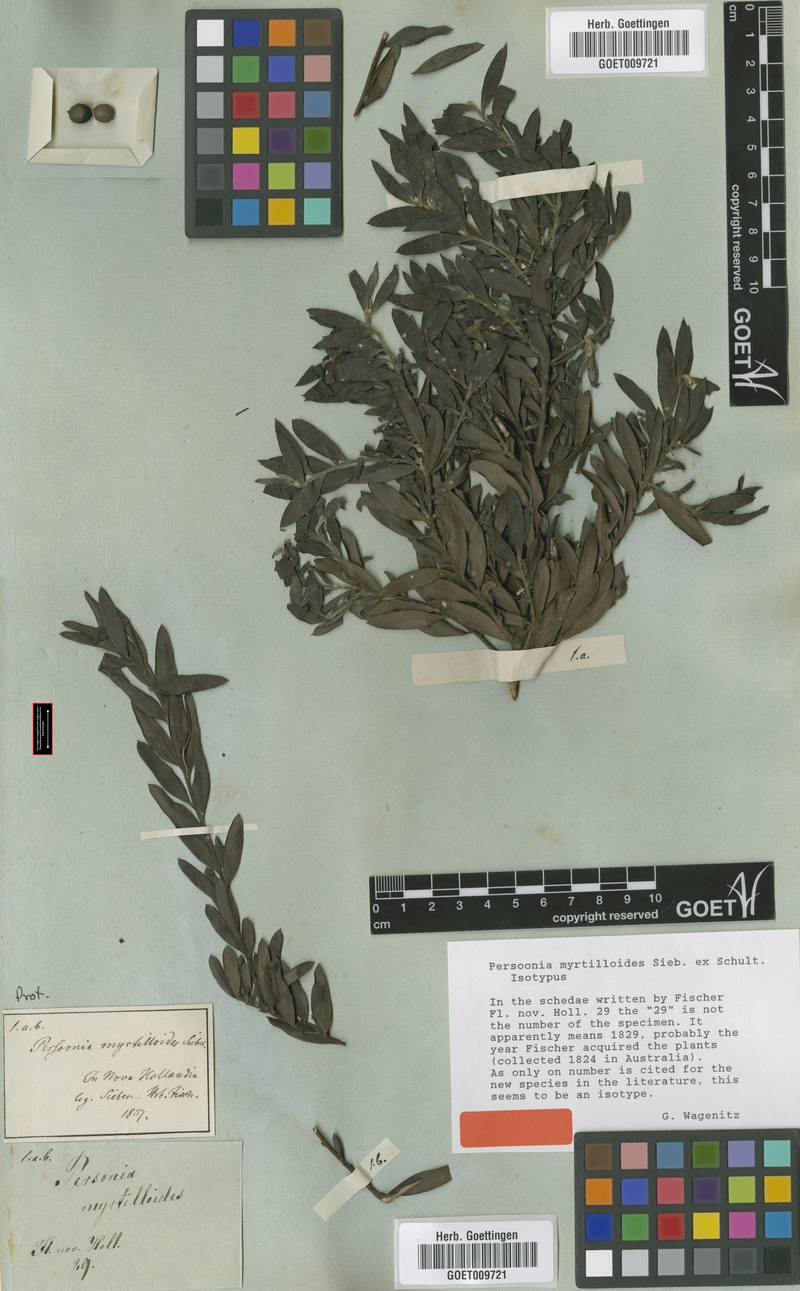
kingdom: Plantae
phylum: Tracheophyta
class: Magnoliopsida
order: Proteales
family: Proteaceae
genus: Persoonia
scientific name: Persoonia myrtilloides
